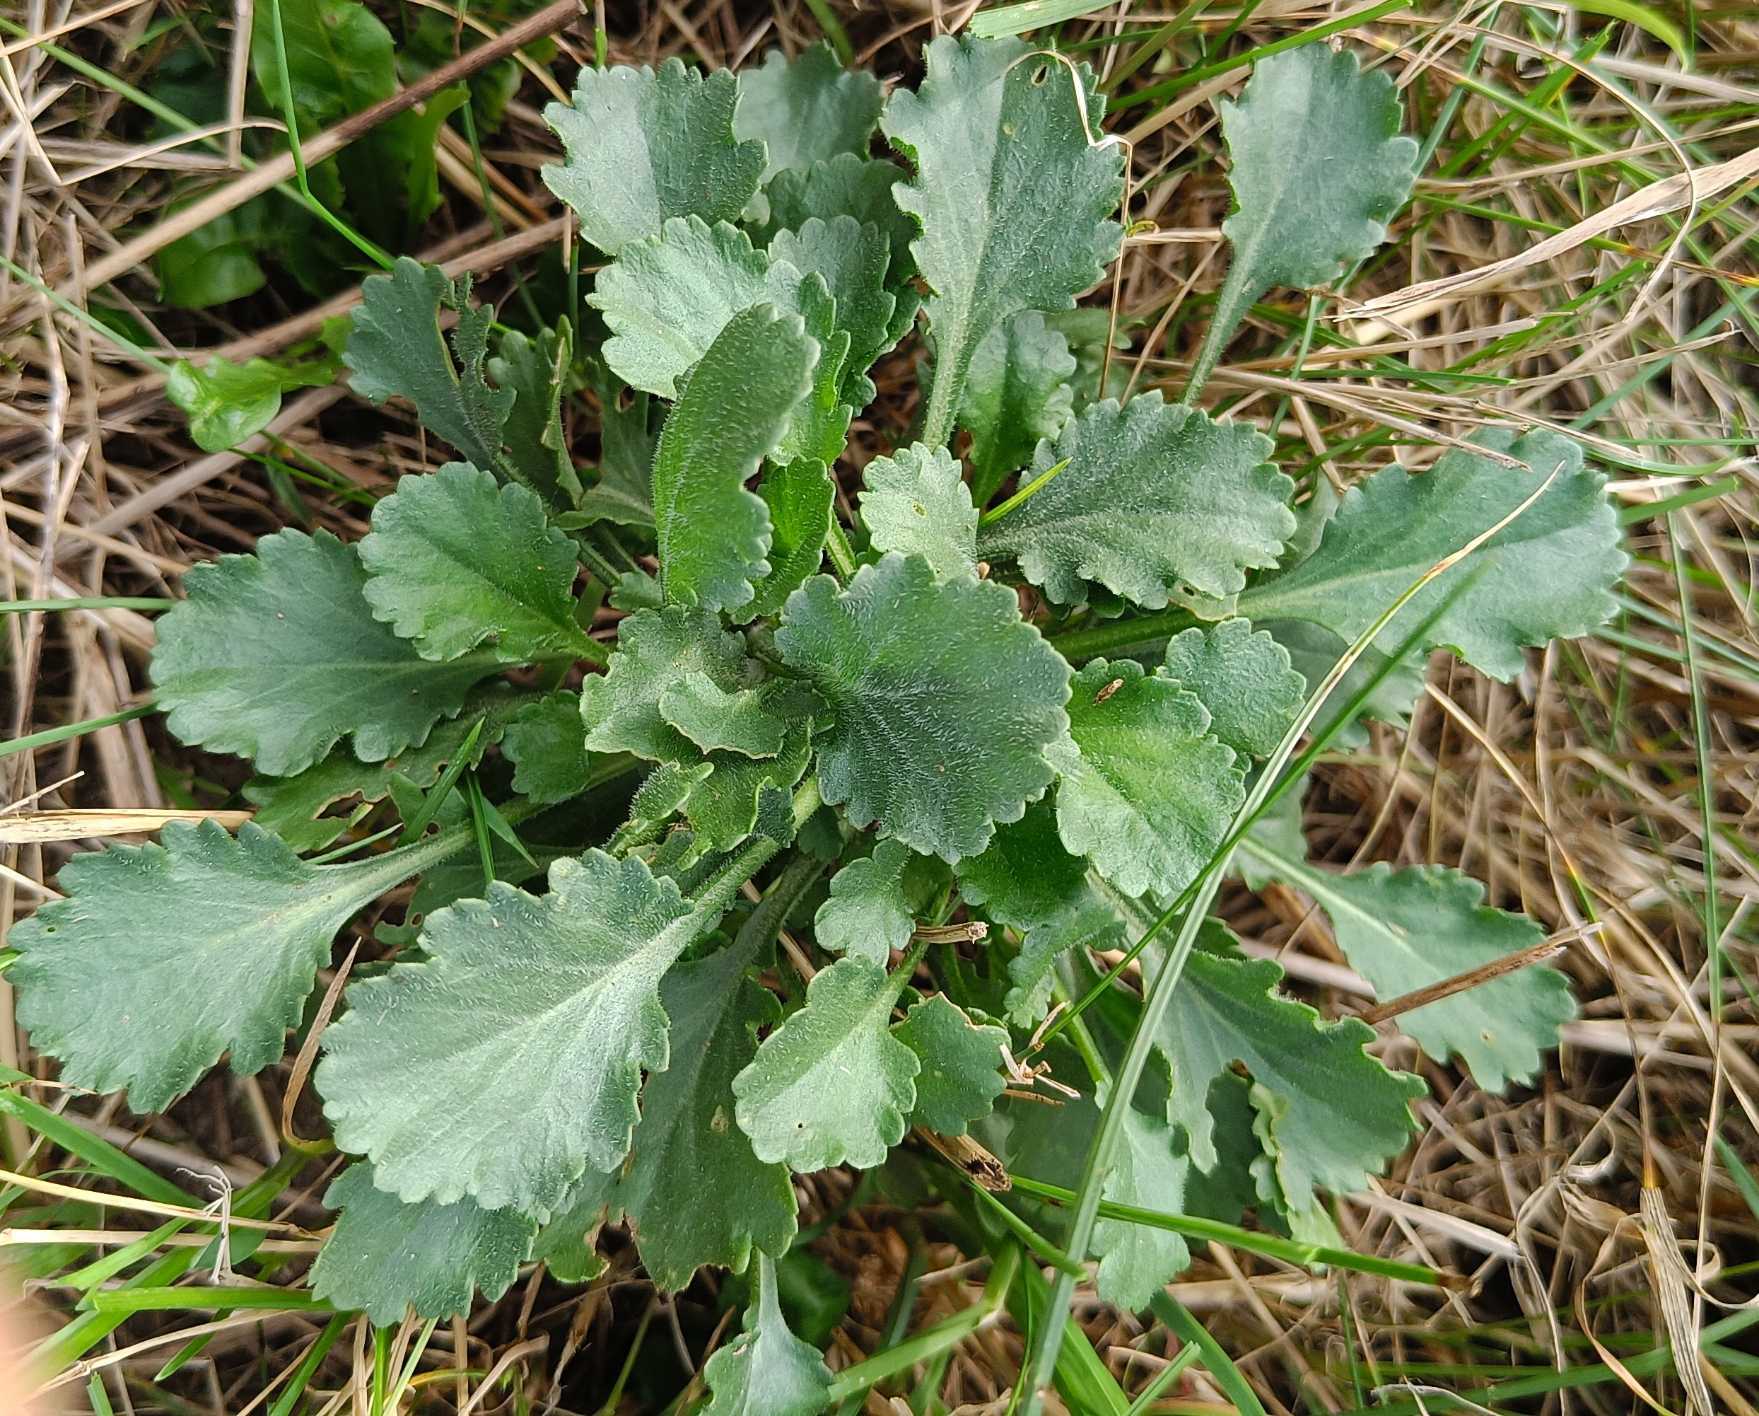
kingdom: Plantae
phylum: Tracheophyta
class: Magnoliopsida
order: Asterales
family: Asteraceae
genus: Leucanthemum
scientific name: Leucanthemum vulgare
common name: Hvid okseøje
